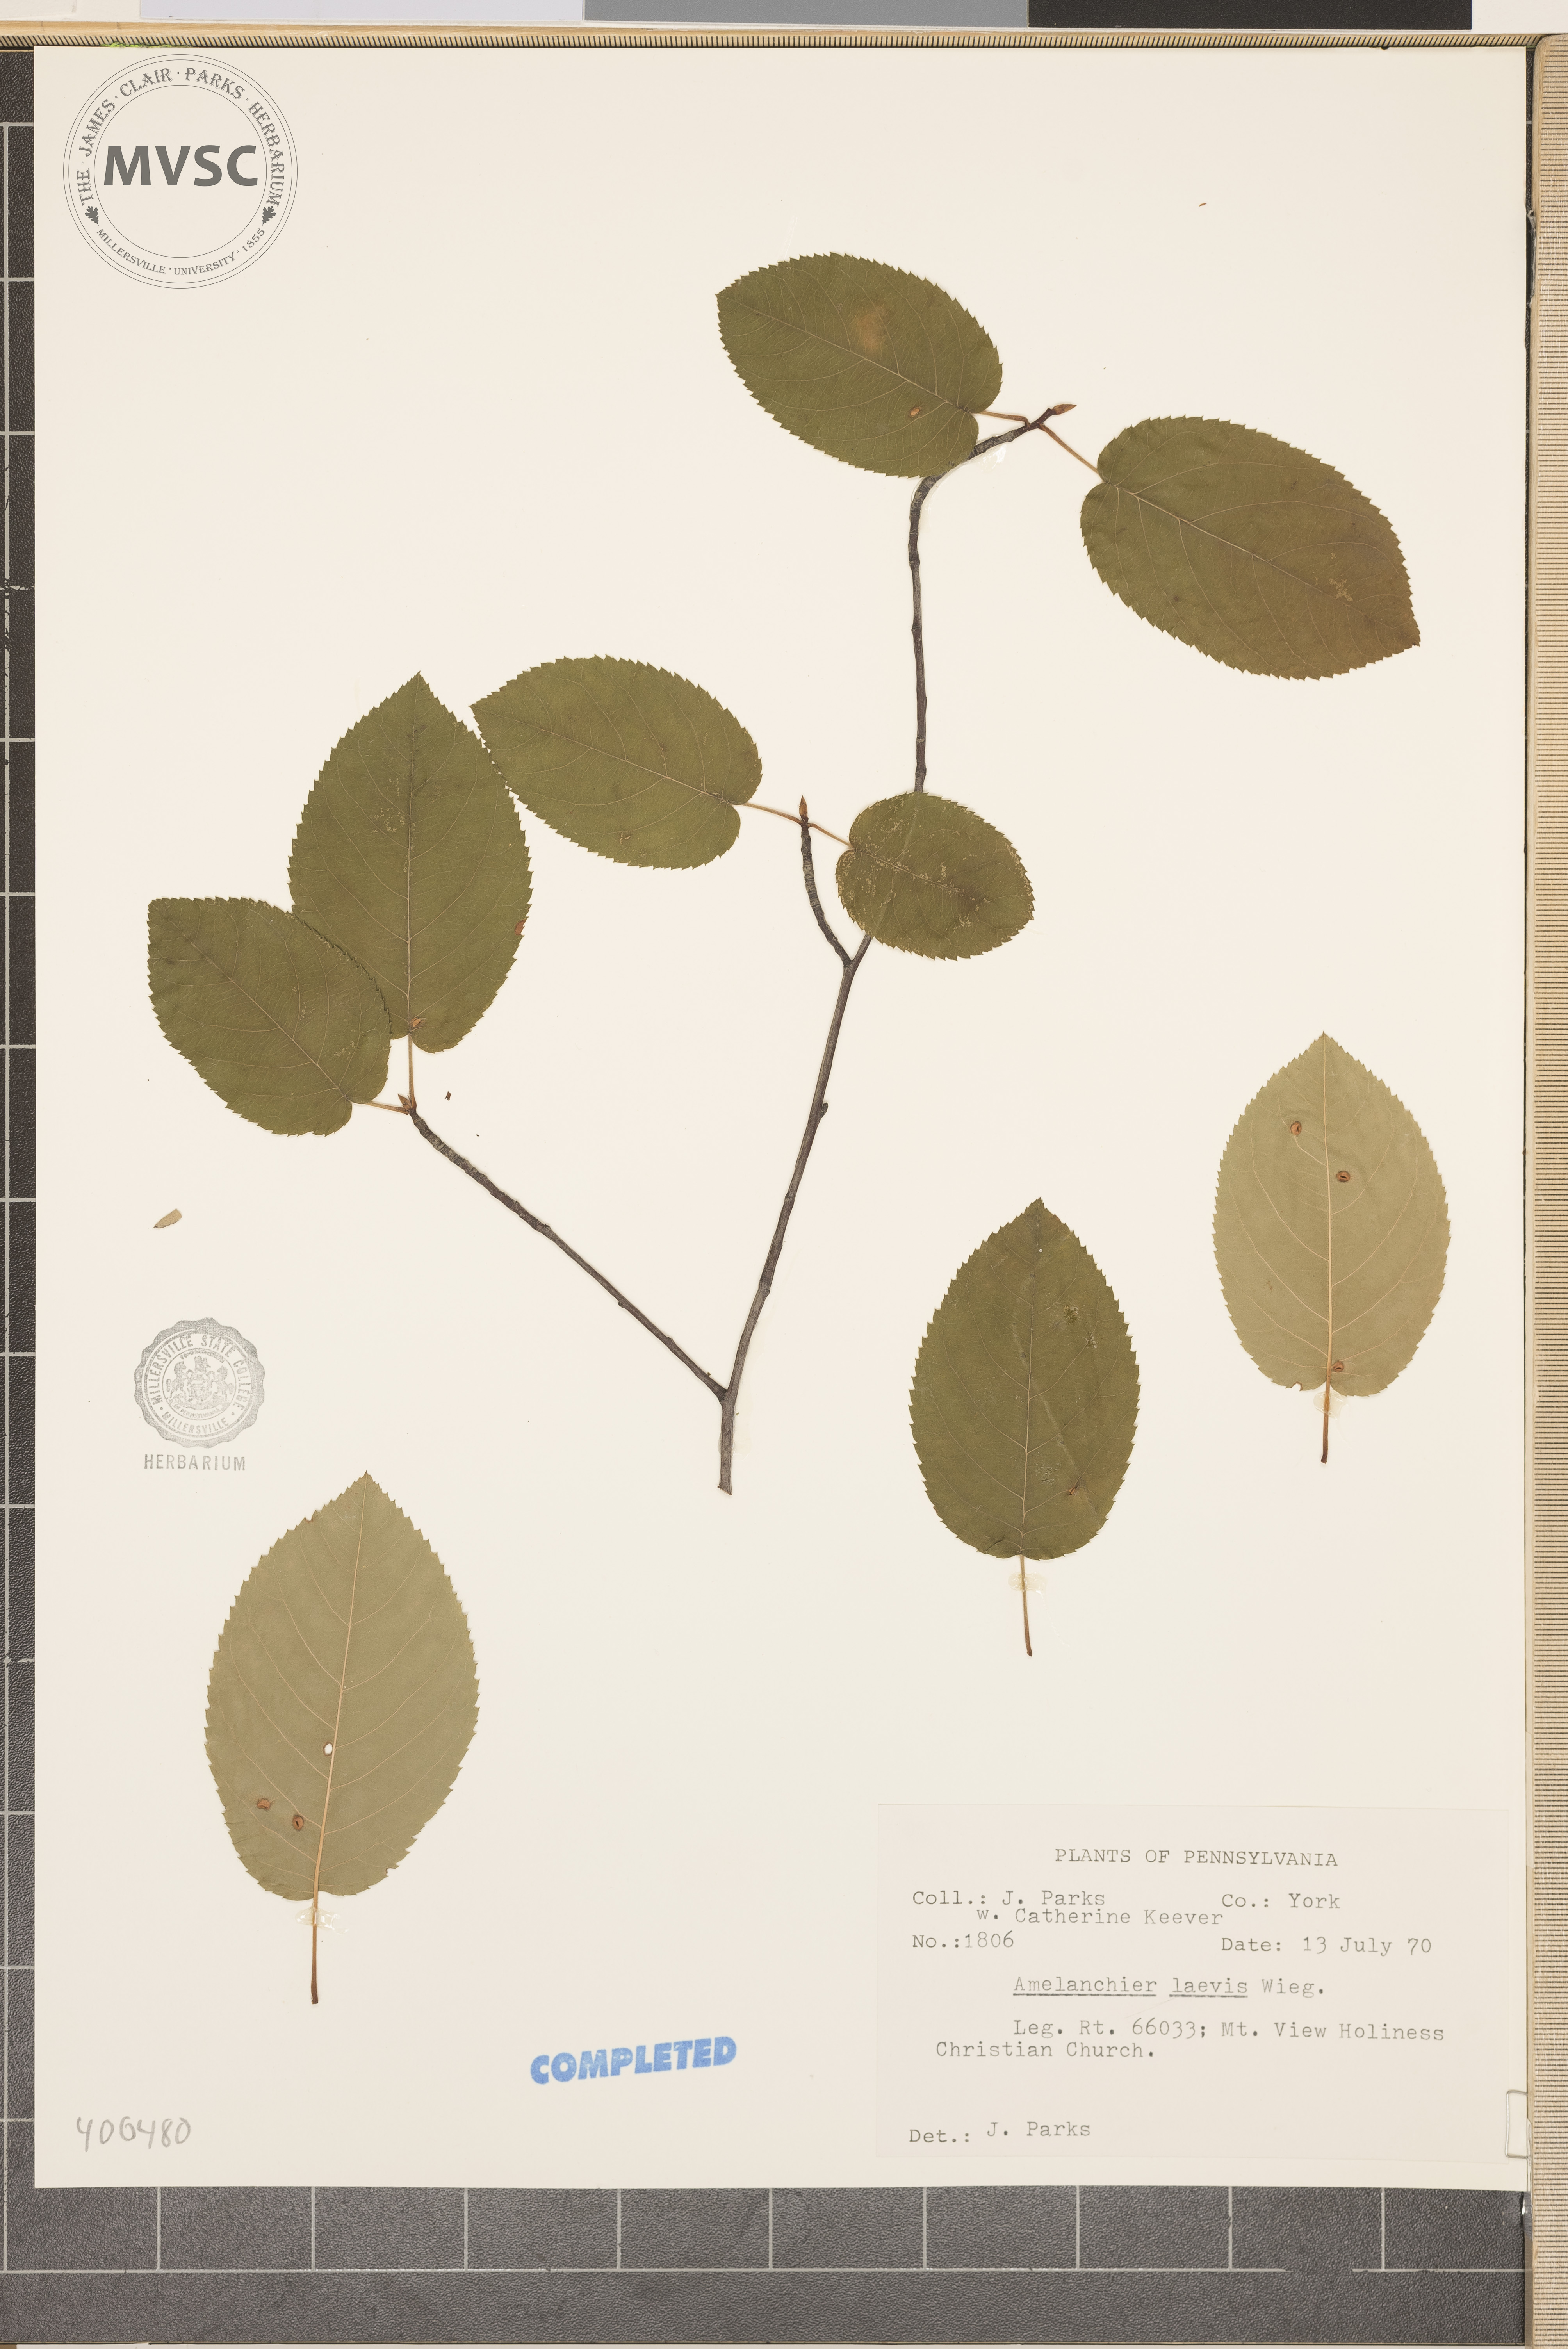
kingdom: Plantae
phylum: Tracheophyta
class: Magnoliopsida
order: Rosales
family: Rosaceae
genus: Amelanchier
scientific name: Amelanchier laevis
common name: serviceberry
